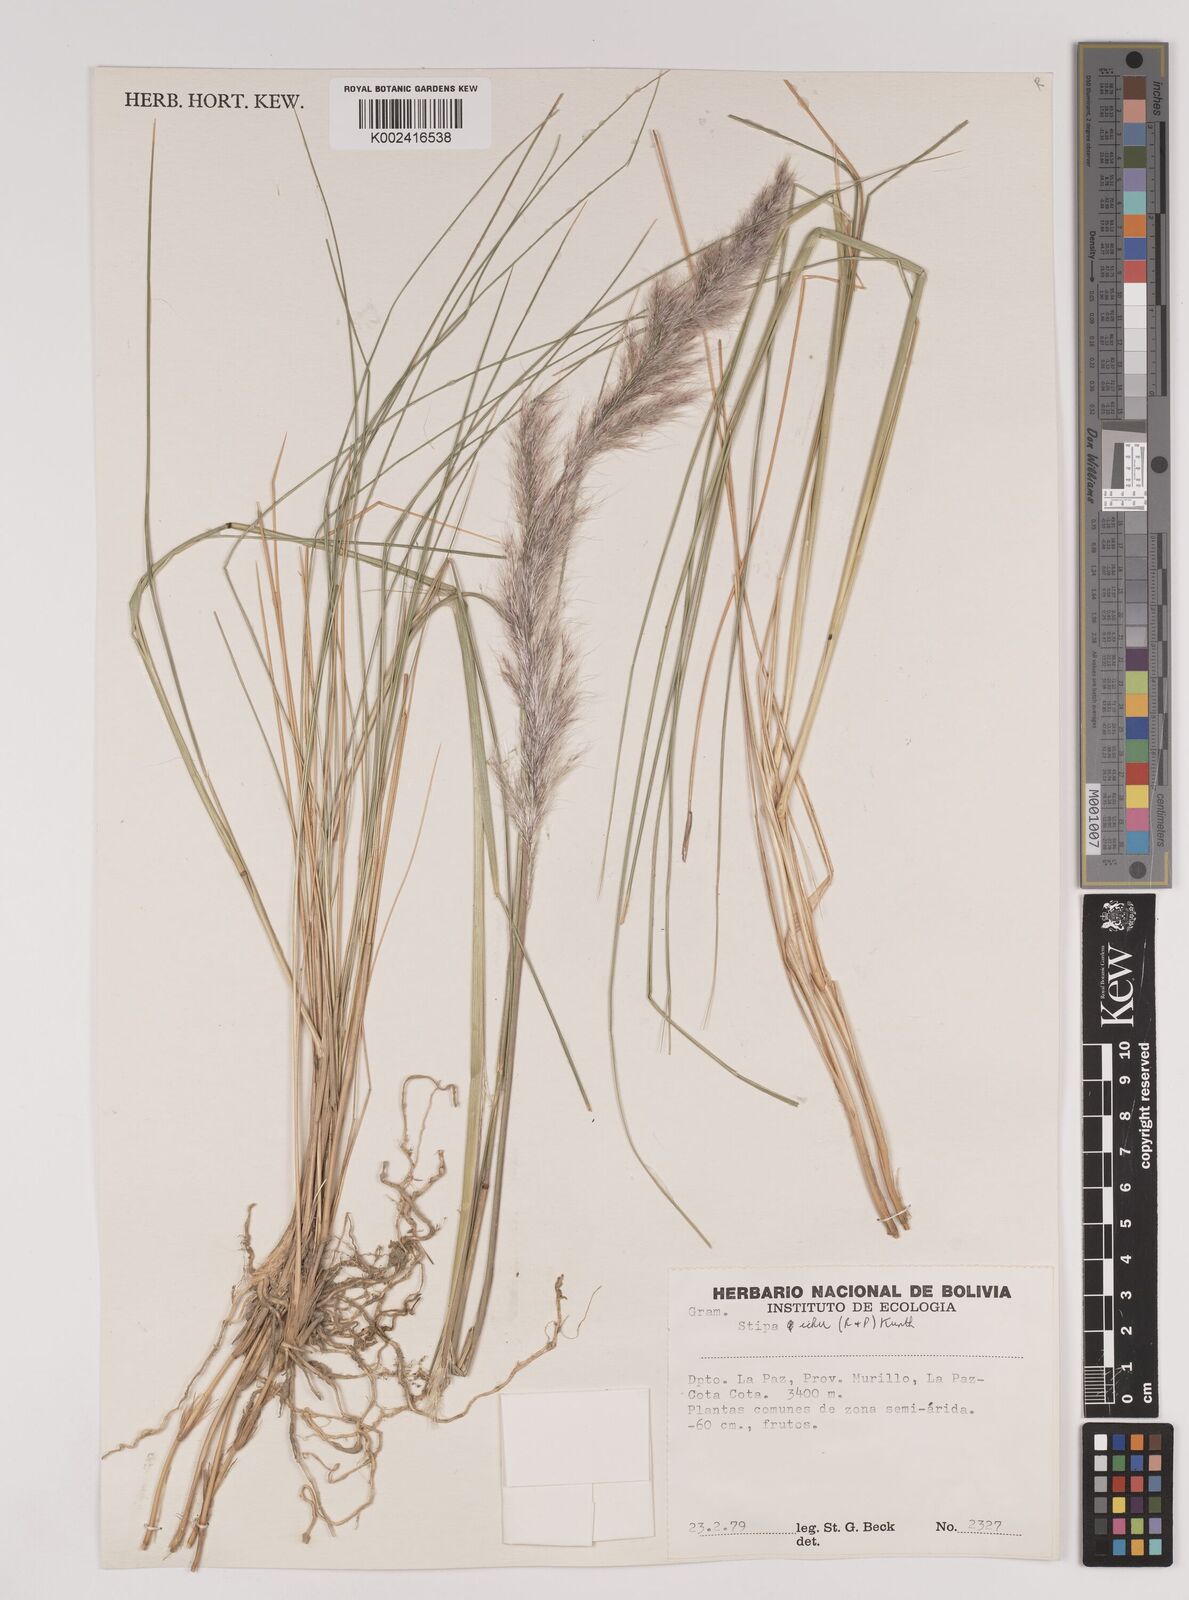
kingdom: Plantae
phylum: Tracheophyta
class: Liliopsida
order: Poales
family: Poaceae
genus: Stipa
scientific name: Stipa
